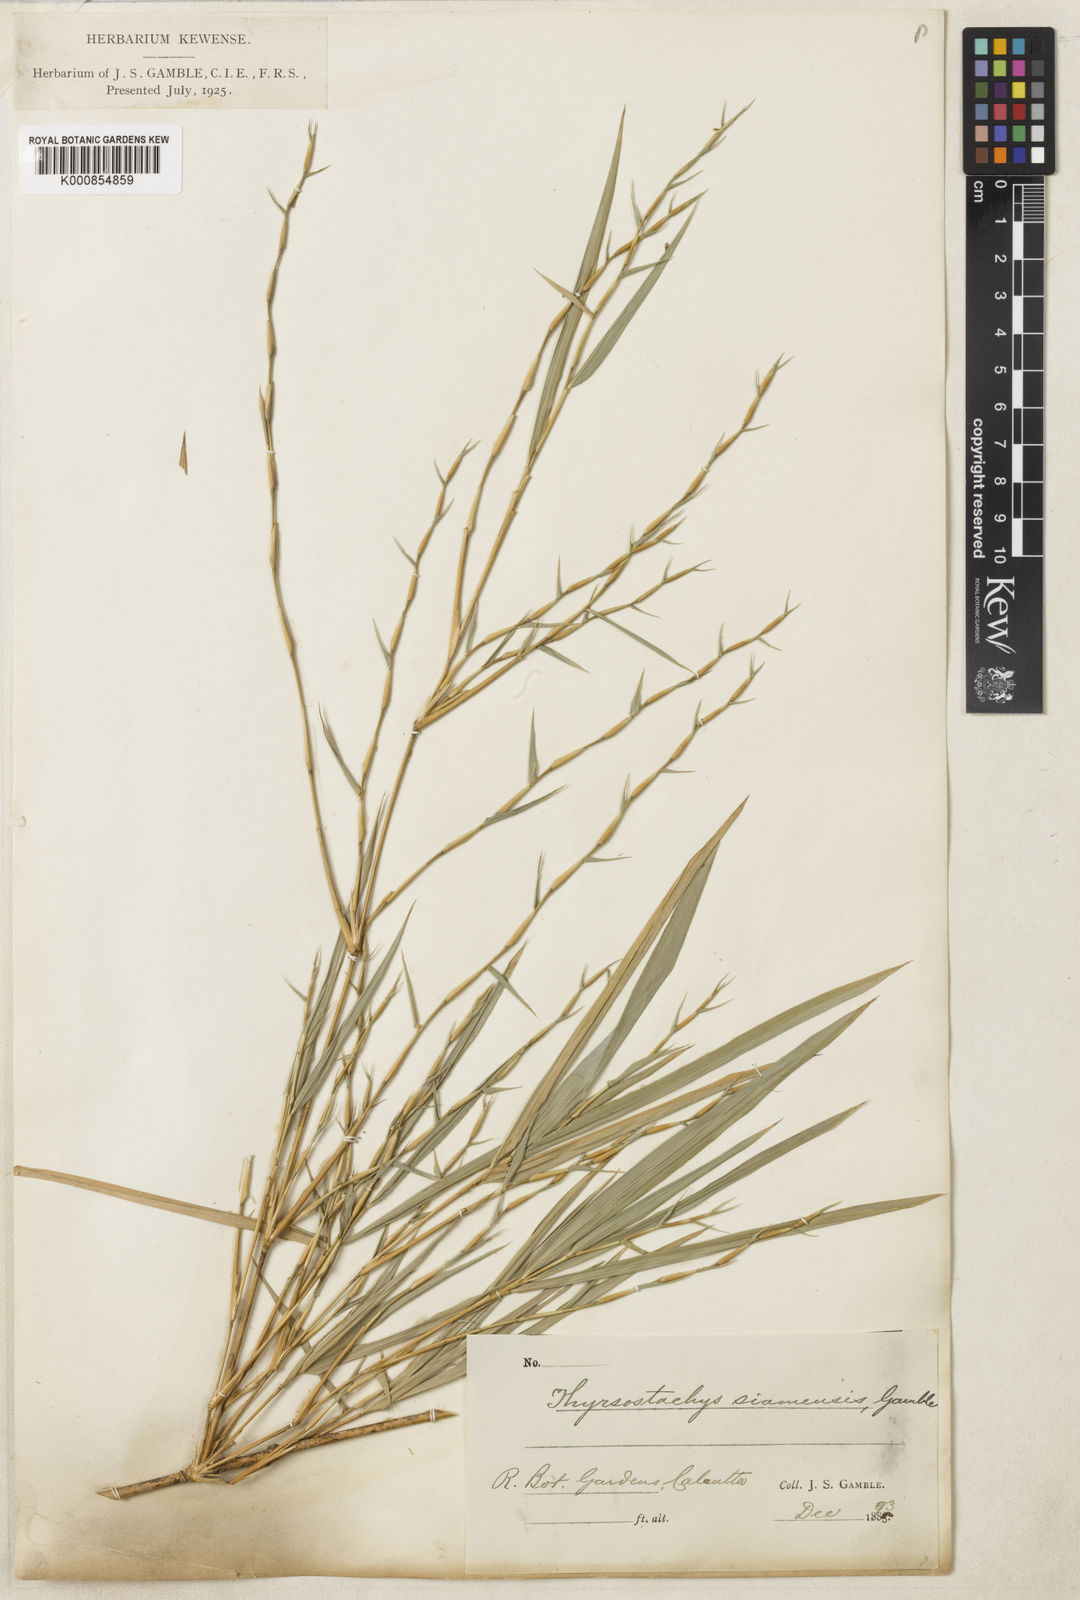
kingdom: Plantae
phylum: Tracheophyta
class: Liliopsida
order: Poales
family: Poaceae
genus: Thyrsostachys
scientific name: Thyrsostachys siamensis
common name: Thailand bamboo
